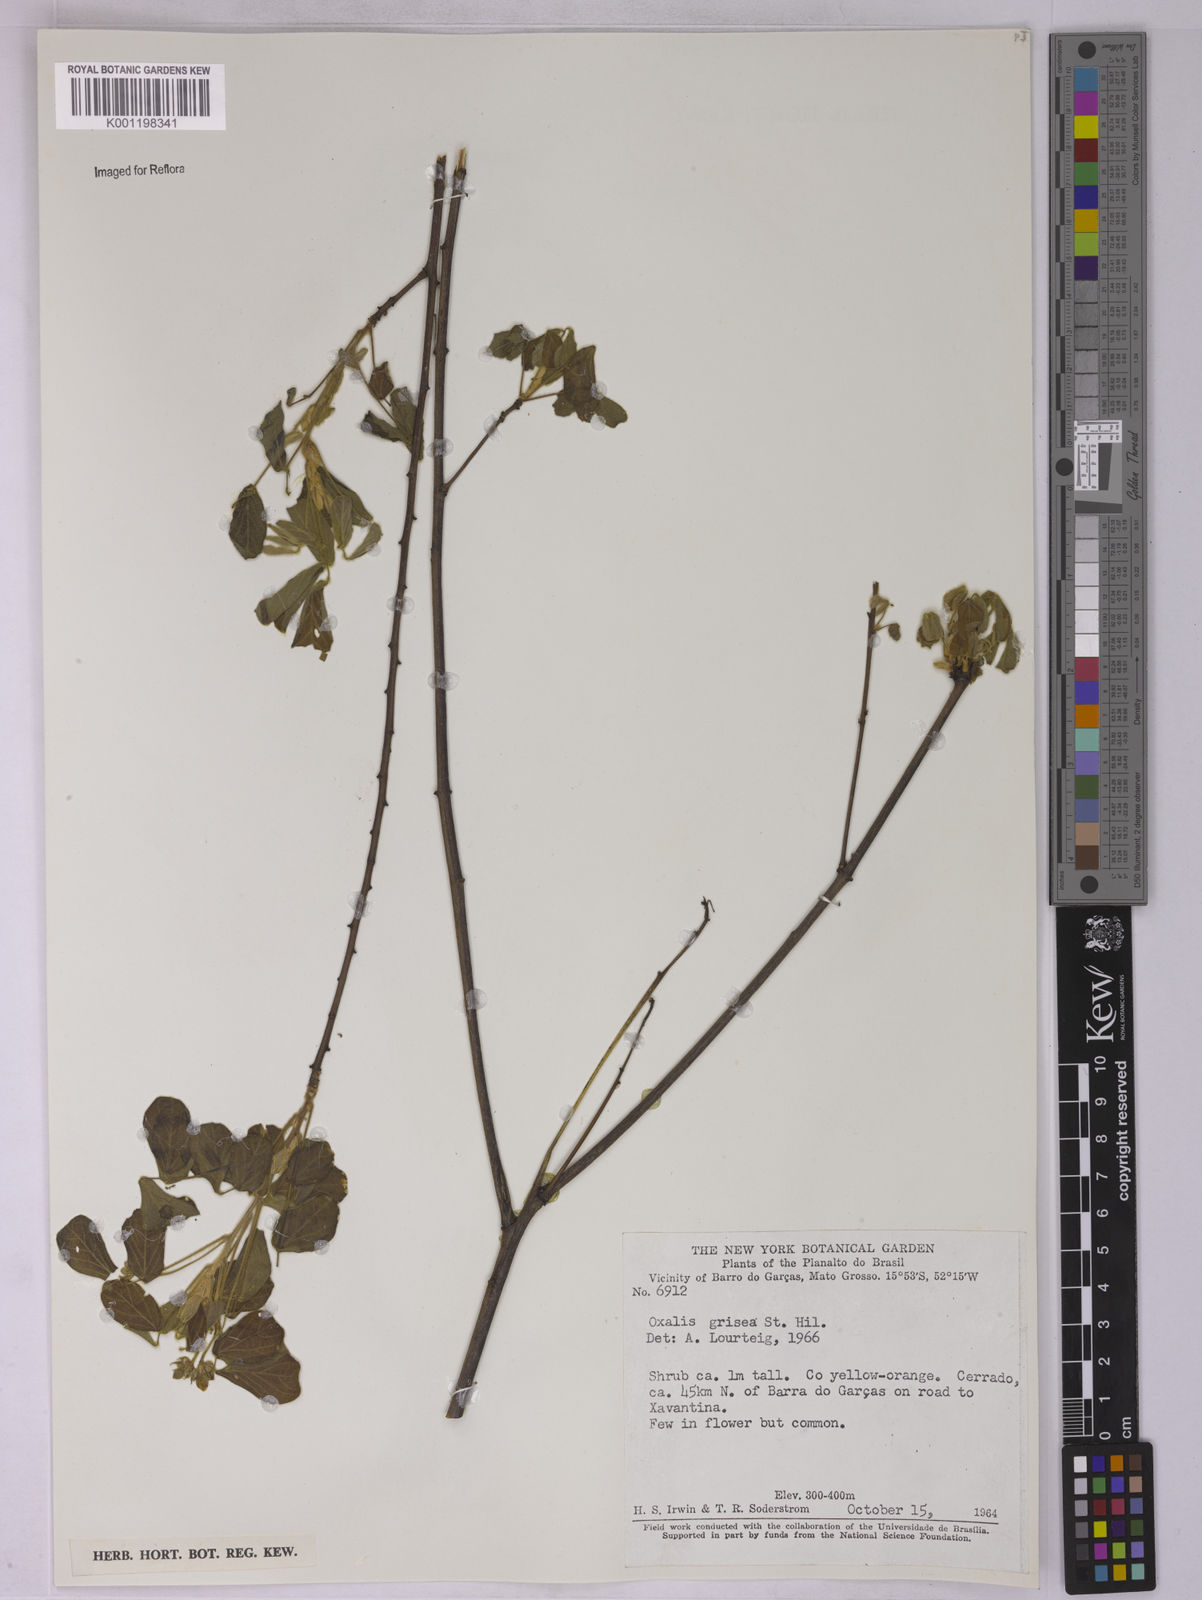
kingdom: Plantae
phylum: Tracheophyta
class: Magnoliopsida
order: Oxalidales
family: Oxalidaceae
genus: Oxalis
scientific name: Oxalis grisea
